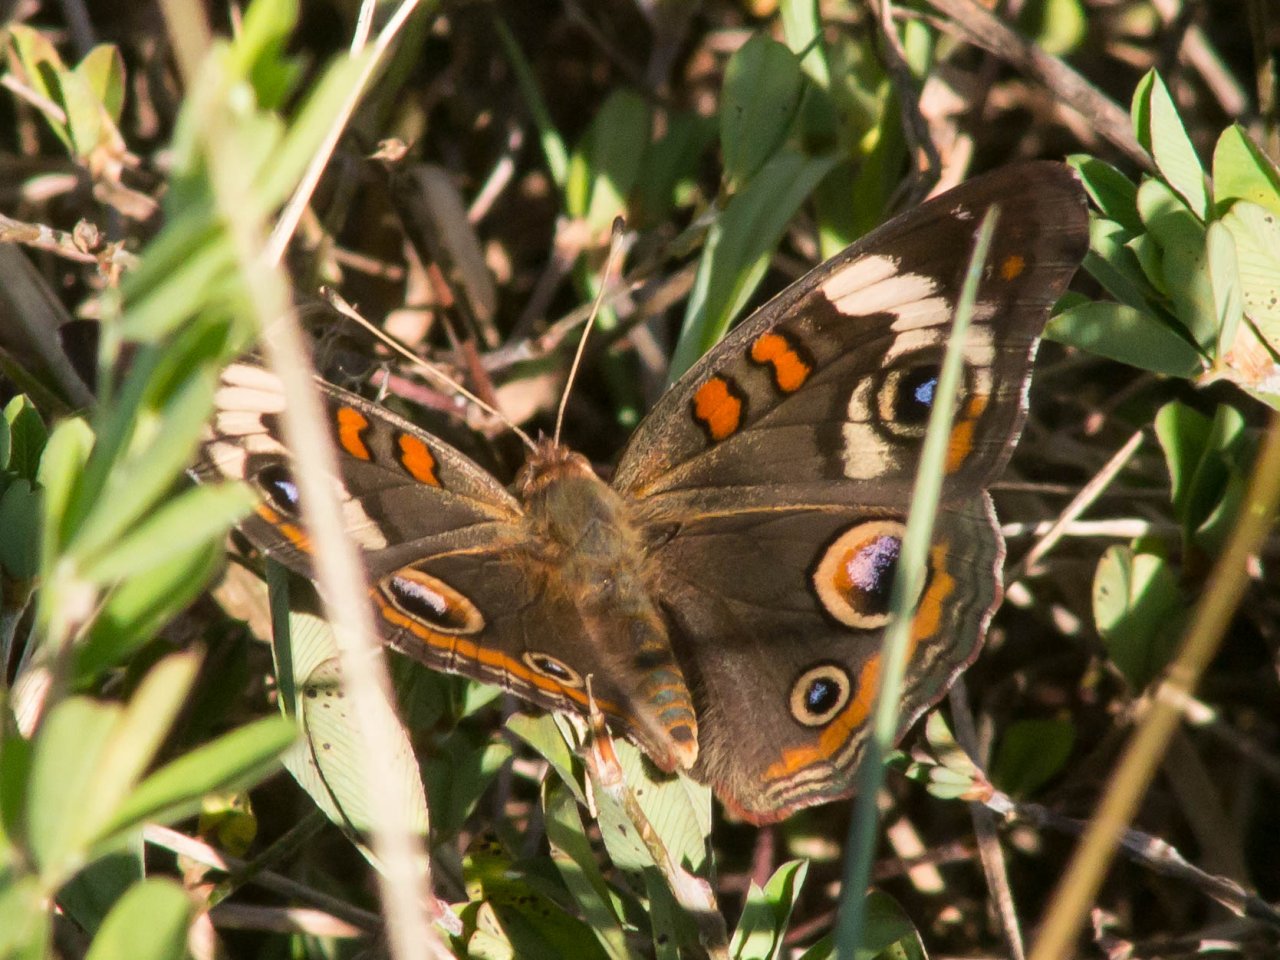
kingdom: Animalia
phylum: Arthropoda
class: Insecta
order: Lepidoptera
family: Nymphalidae
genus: Junonia
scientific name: Junonia coenia
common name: Common Buckeye
